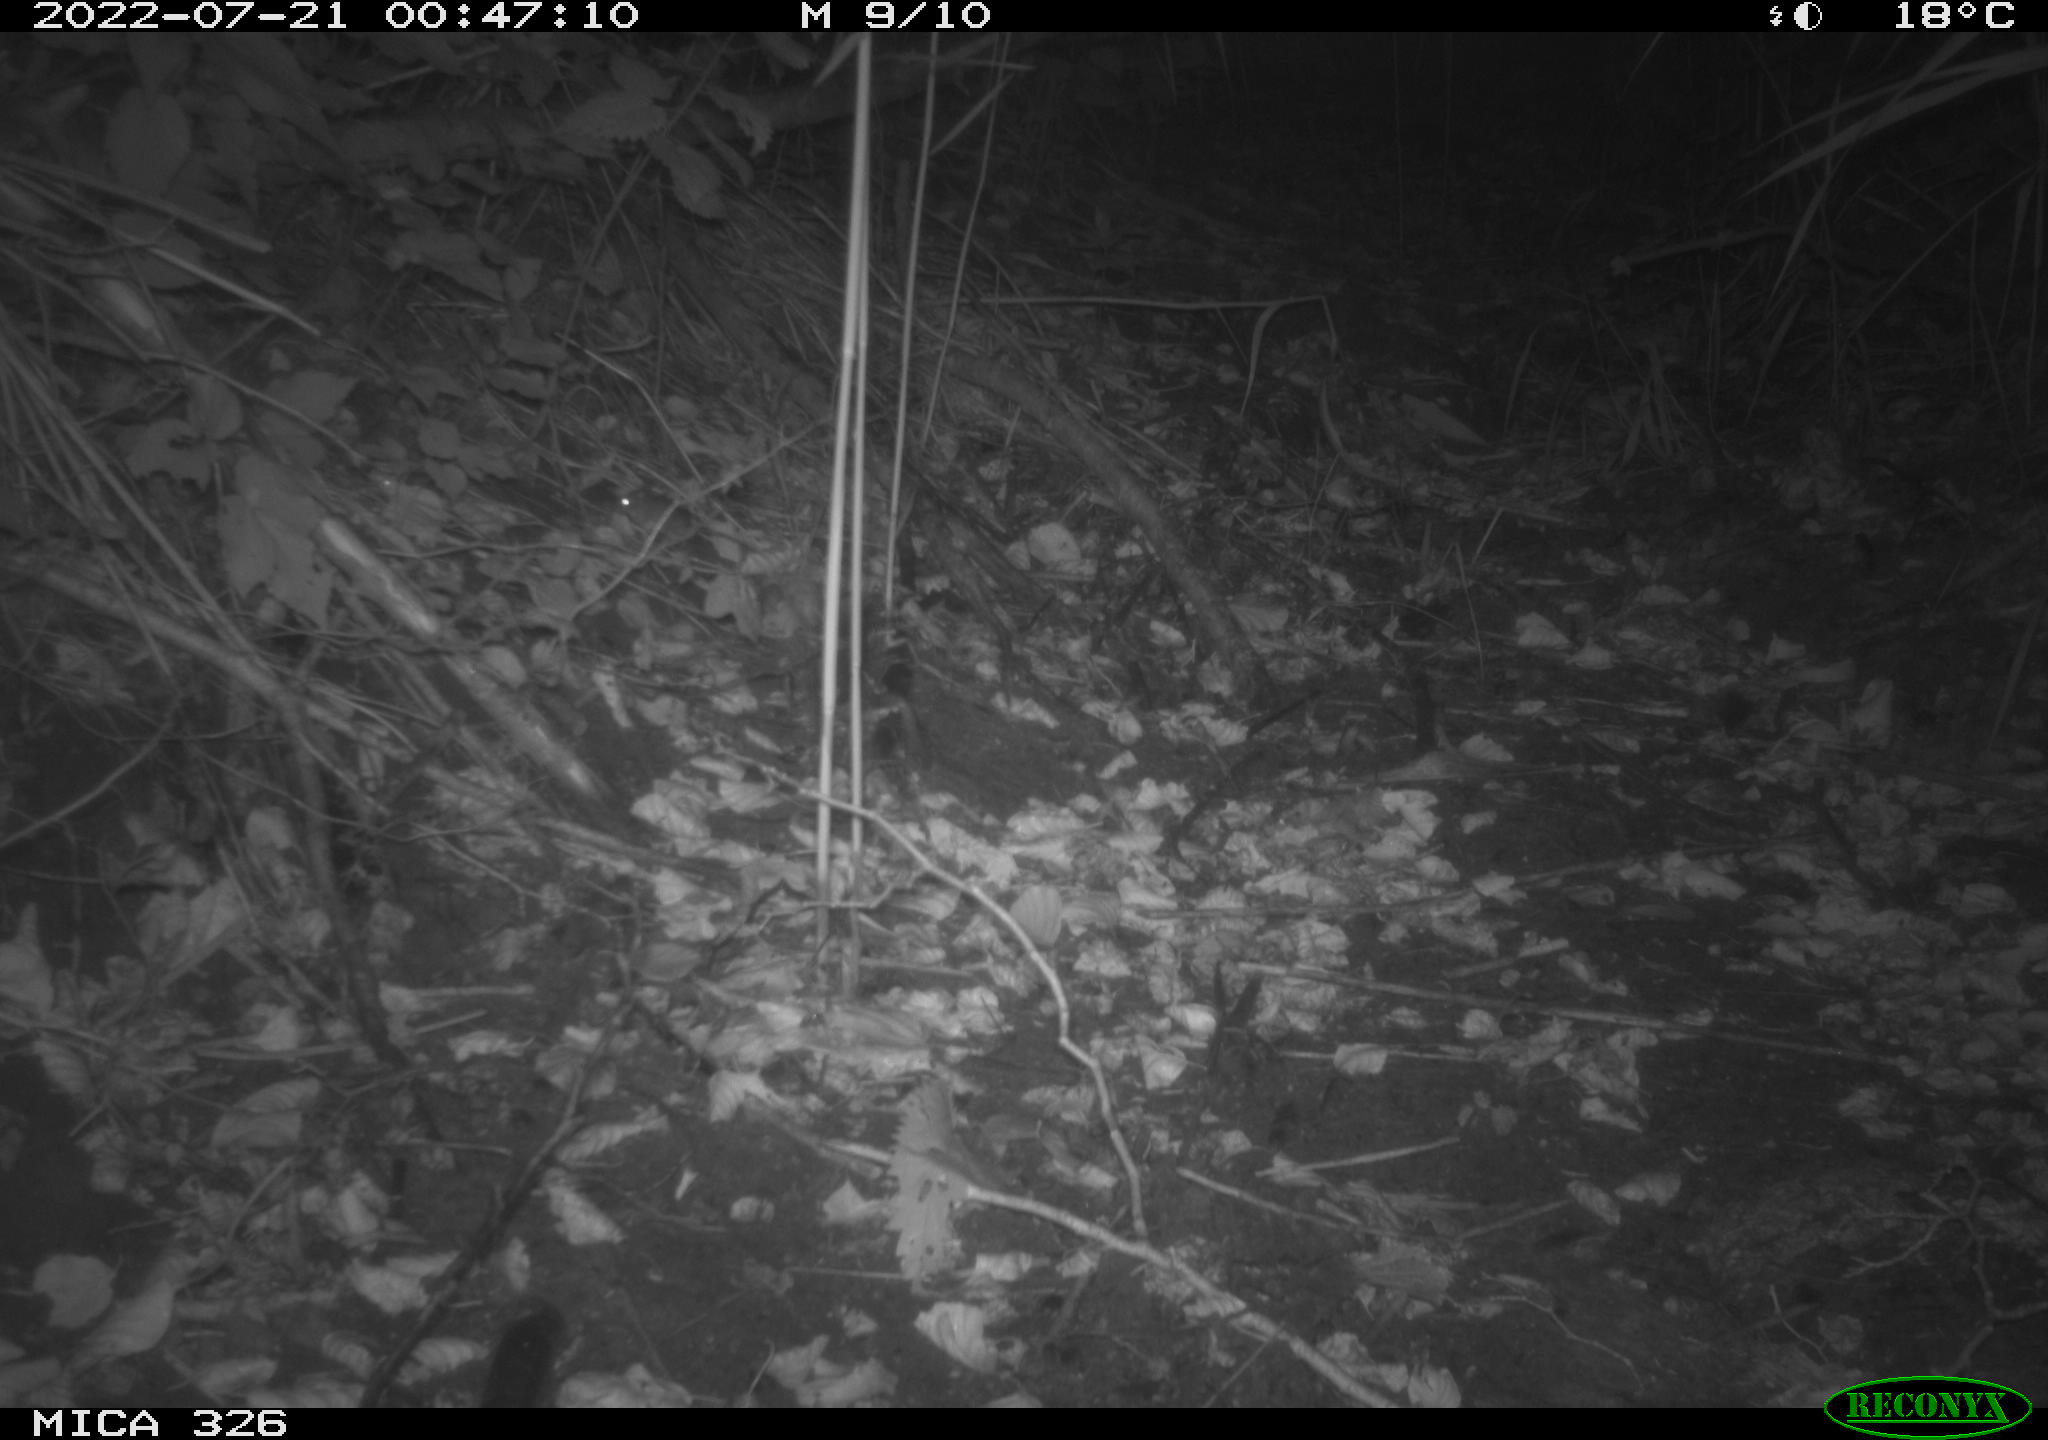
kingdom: Animalia
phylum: Chordata
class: Mammalia
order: Rodentia
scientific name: Rodentia
